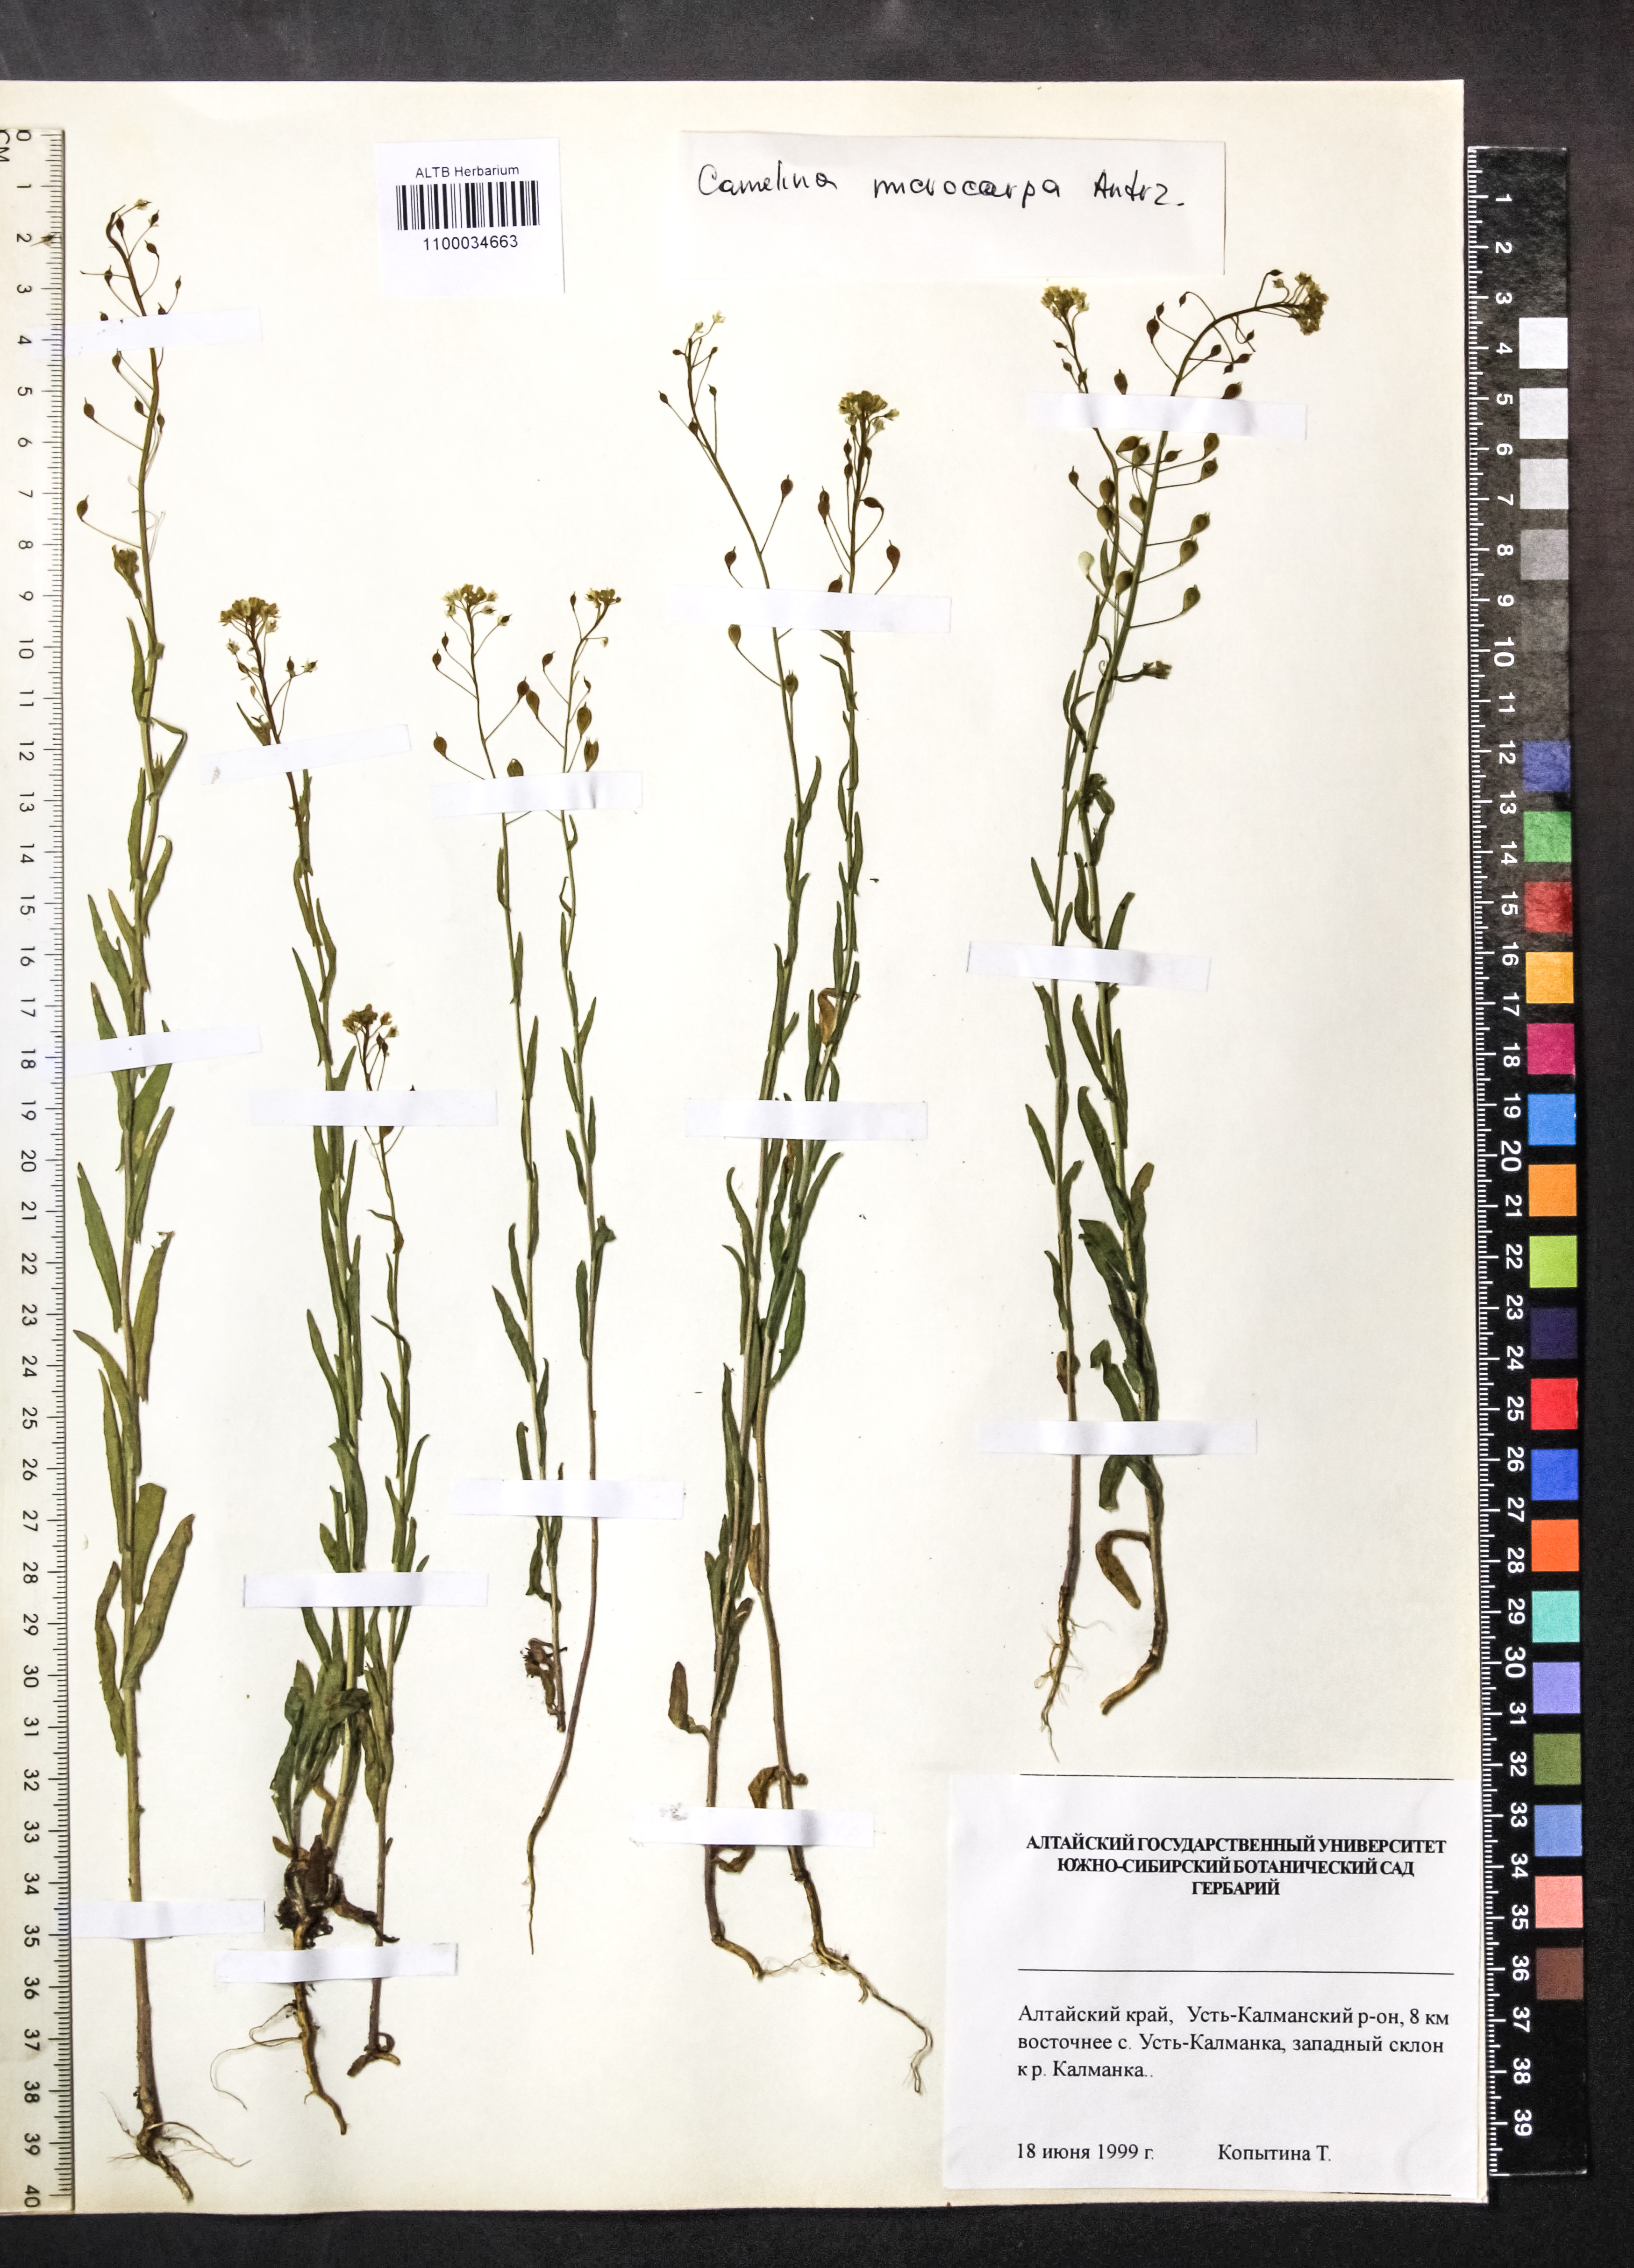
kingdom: Plantae
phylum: Tracheophyta
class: Magnoliopsida
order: Brassicales
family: Brassicaceae
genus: Camelina
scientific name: Camelina microcarpa
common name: Lesser gold-of-pleasure
